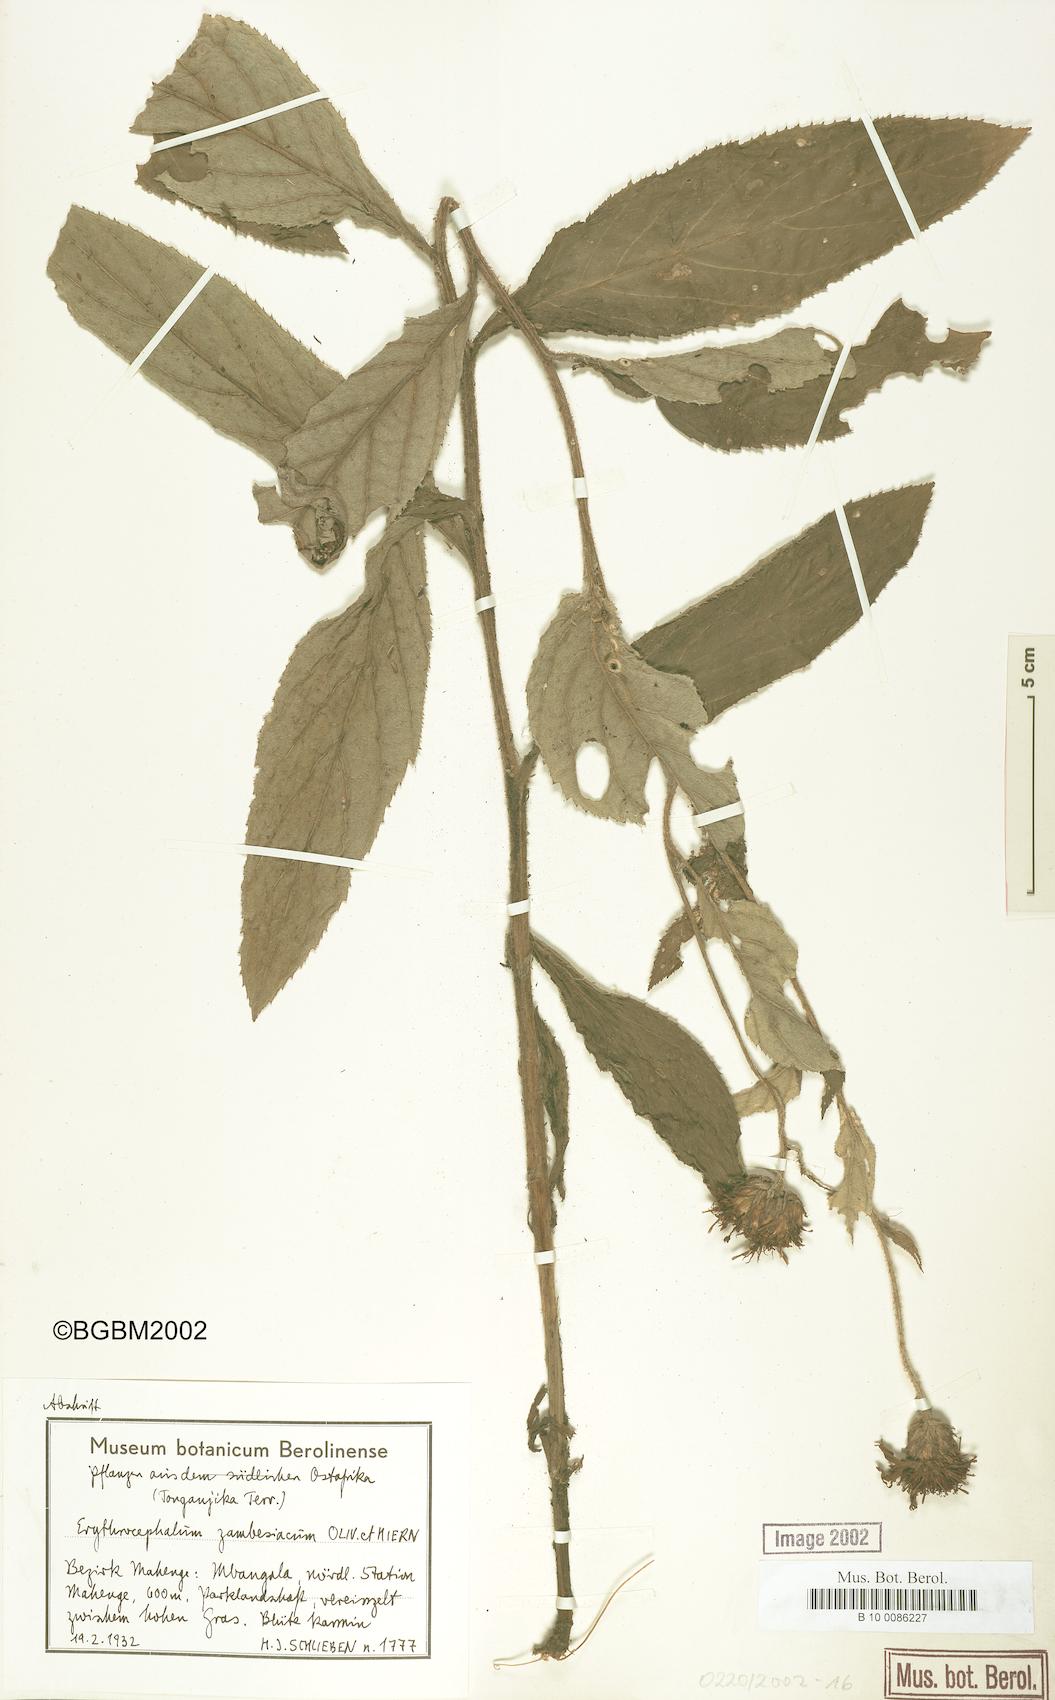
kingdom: Plantae
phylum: Tracheophyta
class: Magnoliopsida
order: Asterales
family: Asteraceae
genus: Erythrocephalum
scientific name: Erythrocephalum longifolium
